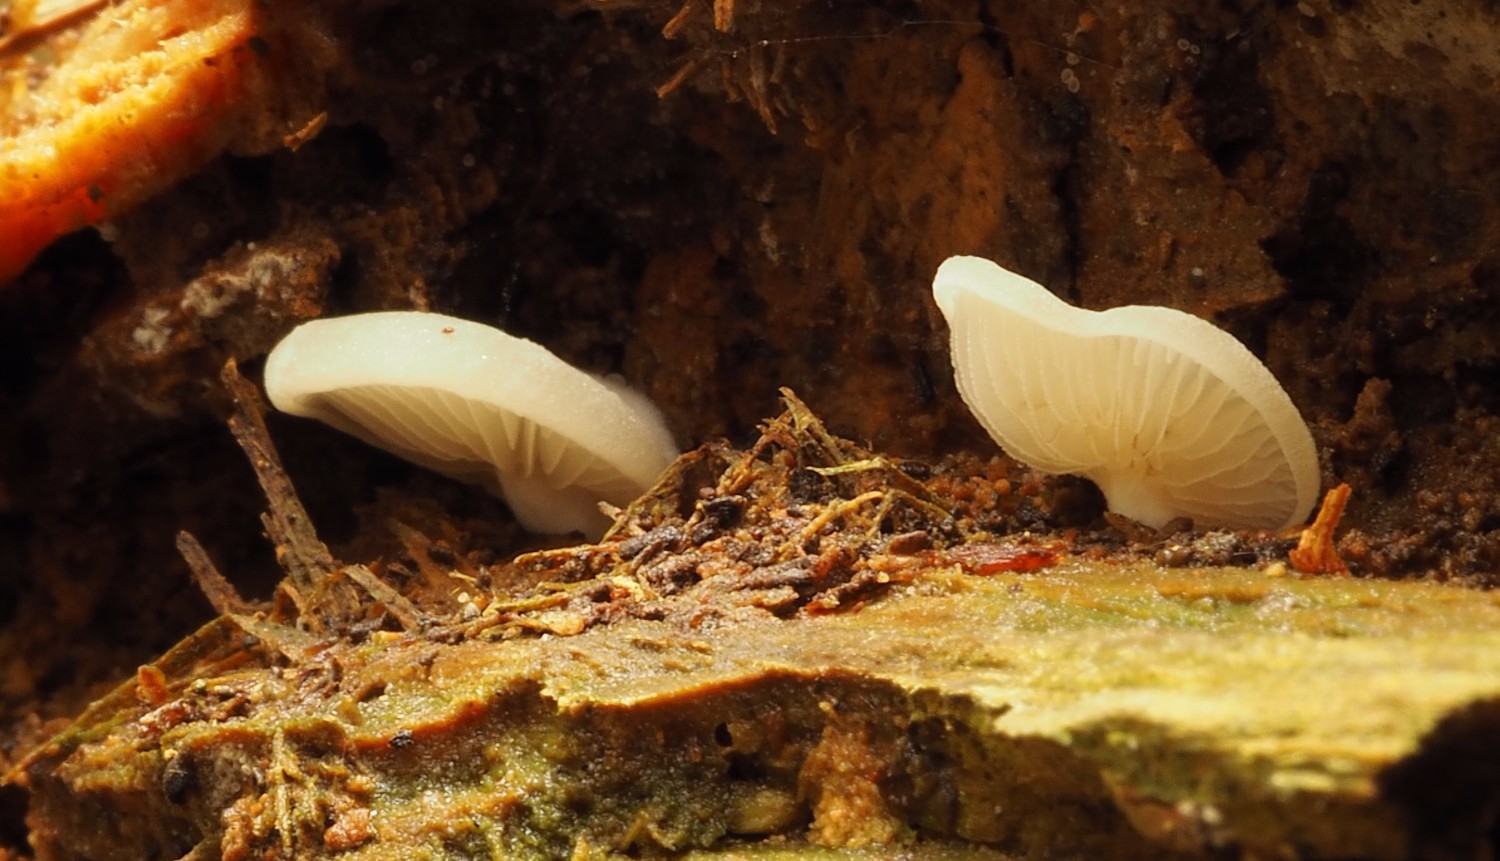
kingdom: Fungi
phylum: Basidiomycota
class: Agaricomycetes
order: Agaricales
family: Crepidotaceae
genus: Crepidotus
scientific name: Crepidotus stenocystis
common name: nåletræs-muslingesvamp
